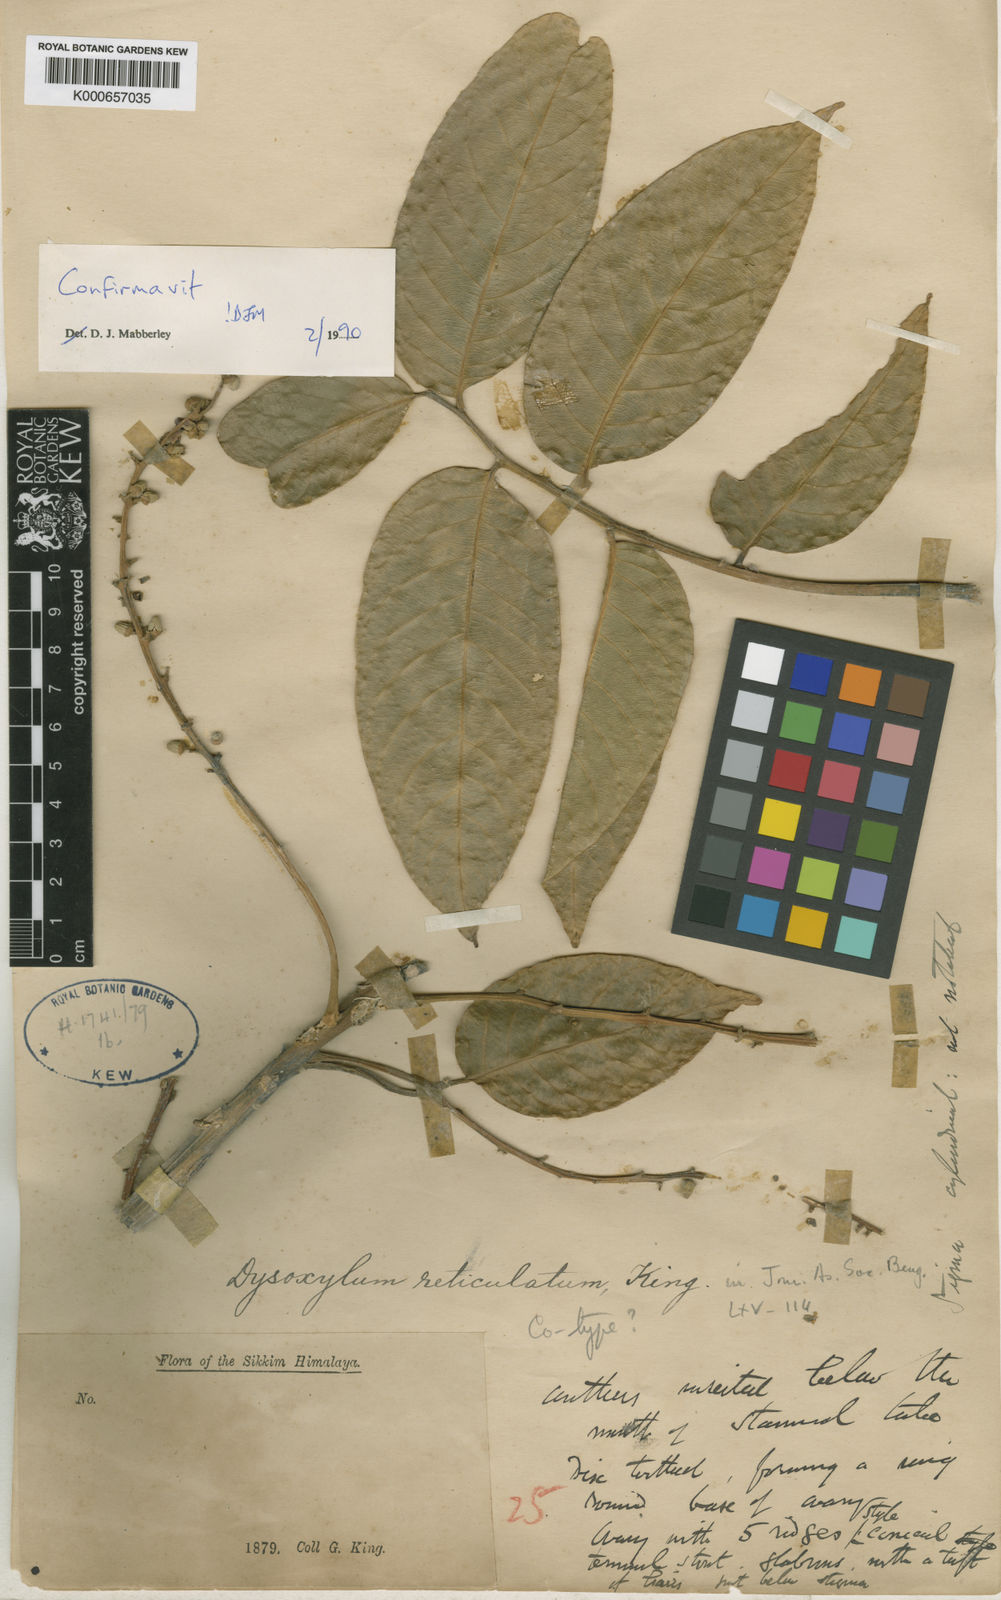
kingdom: Plantae
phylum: Tracheophyta
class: Magnoliopsida
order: Sapindales
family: Meliaceae
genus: Dysoxylum
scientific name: Dysoxylum gotadhora
